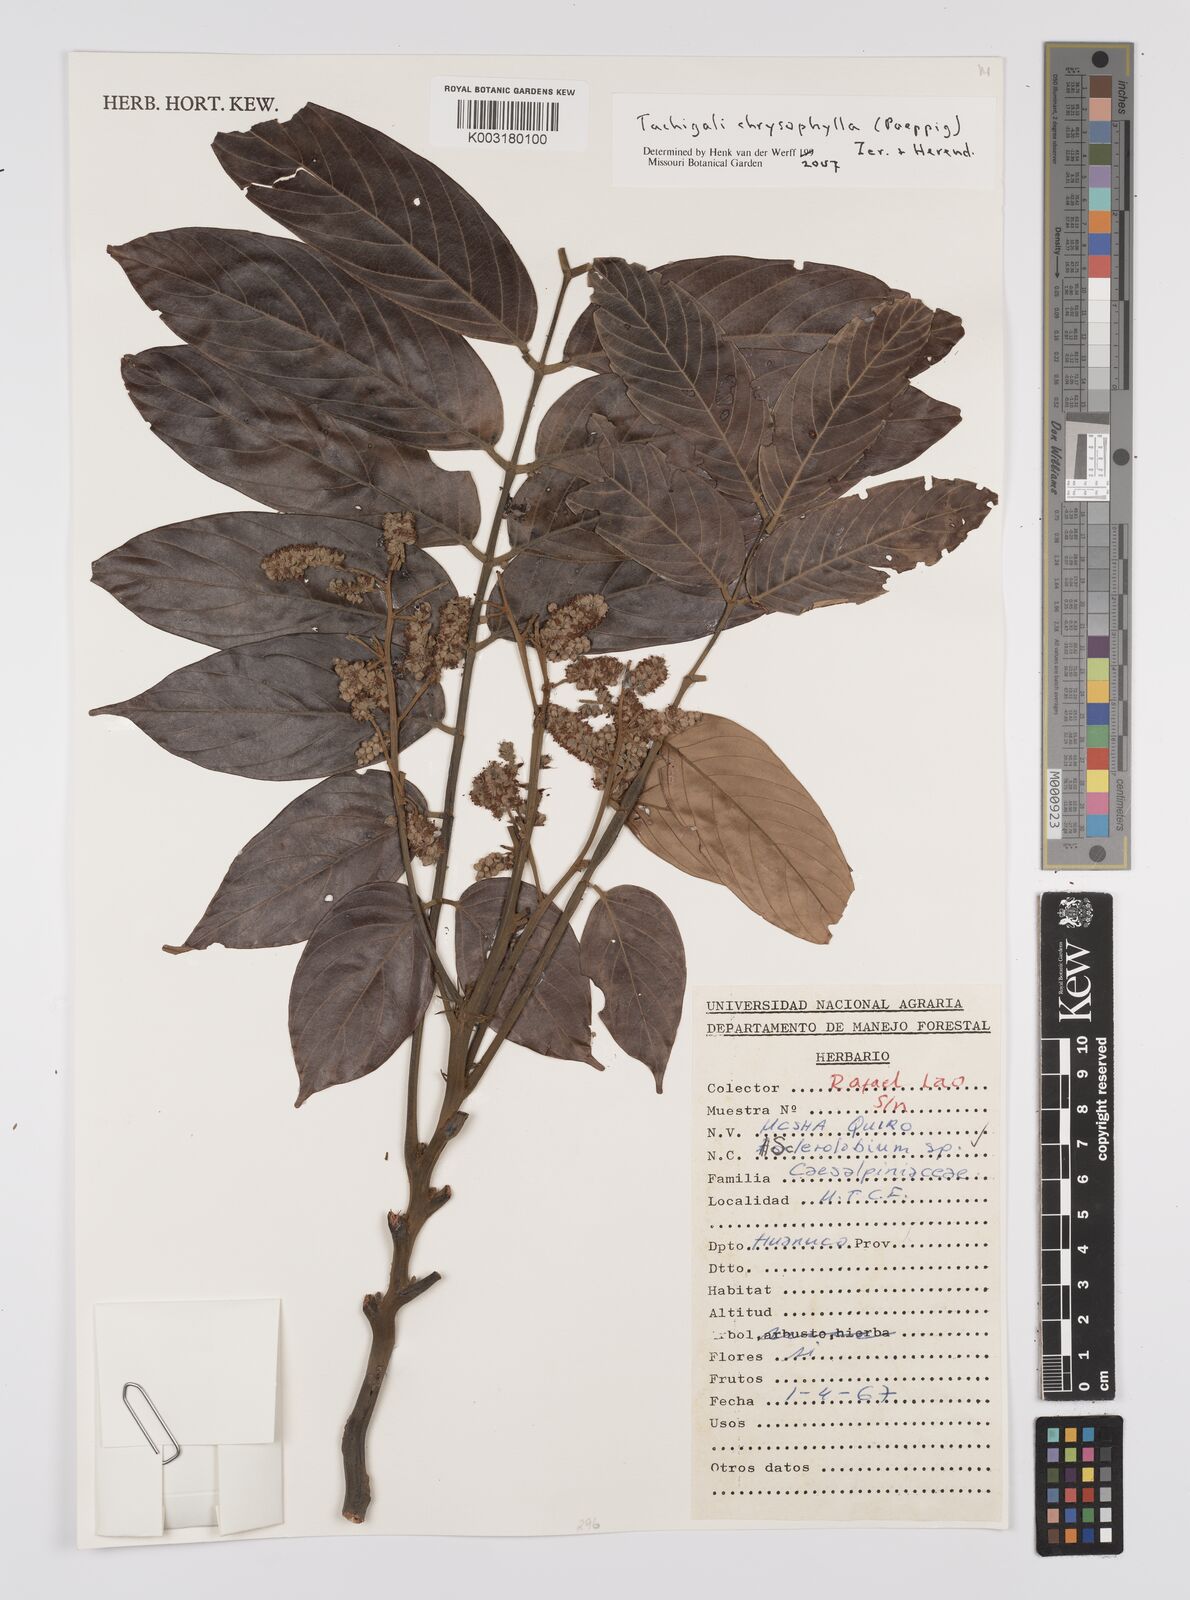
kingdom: Plantae
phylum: Tracheophyta
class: Magnoliopsida
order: Fabales
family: Fabaceae
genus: Tachigali
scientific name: Tachigali chrysophylla
